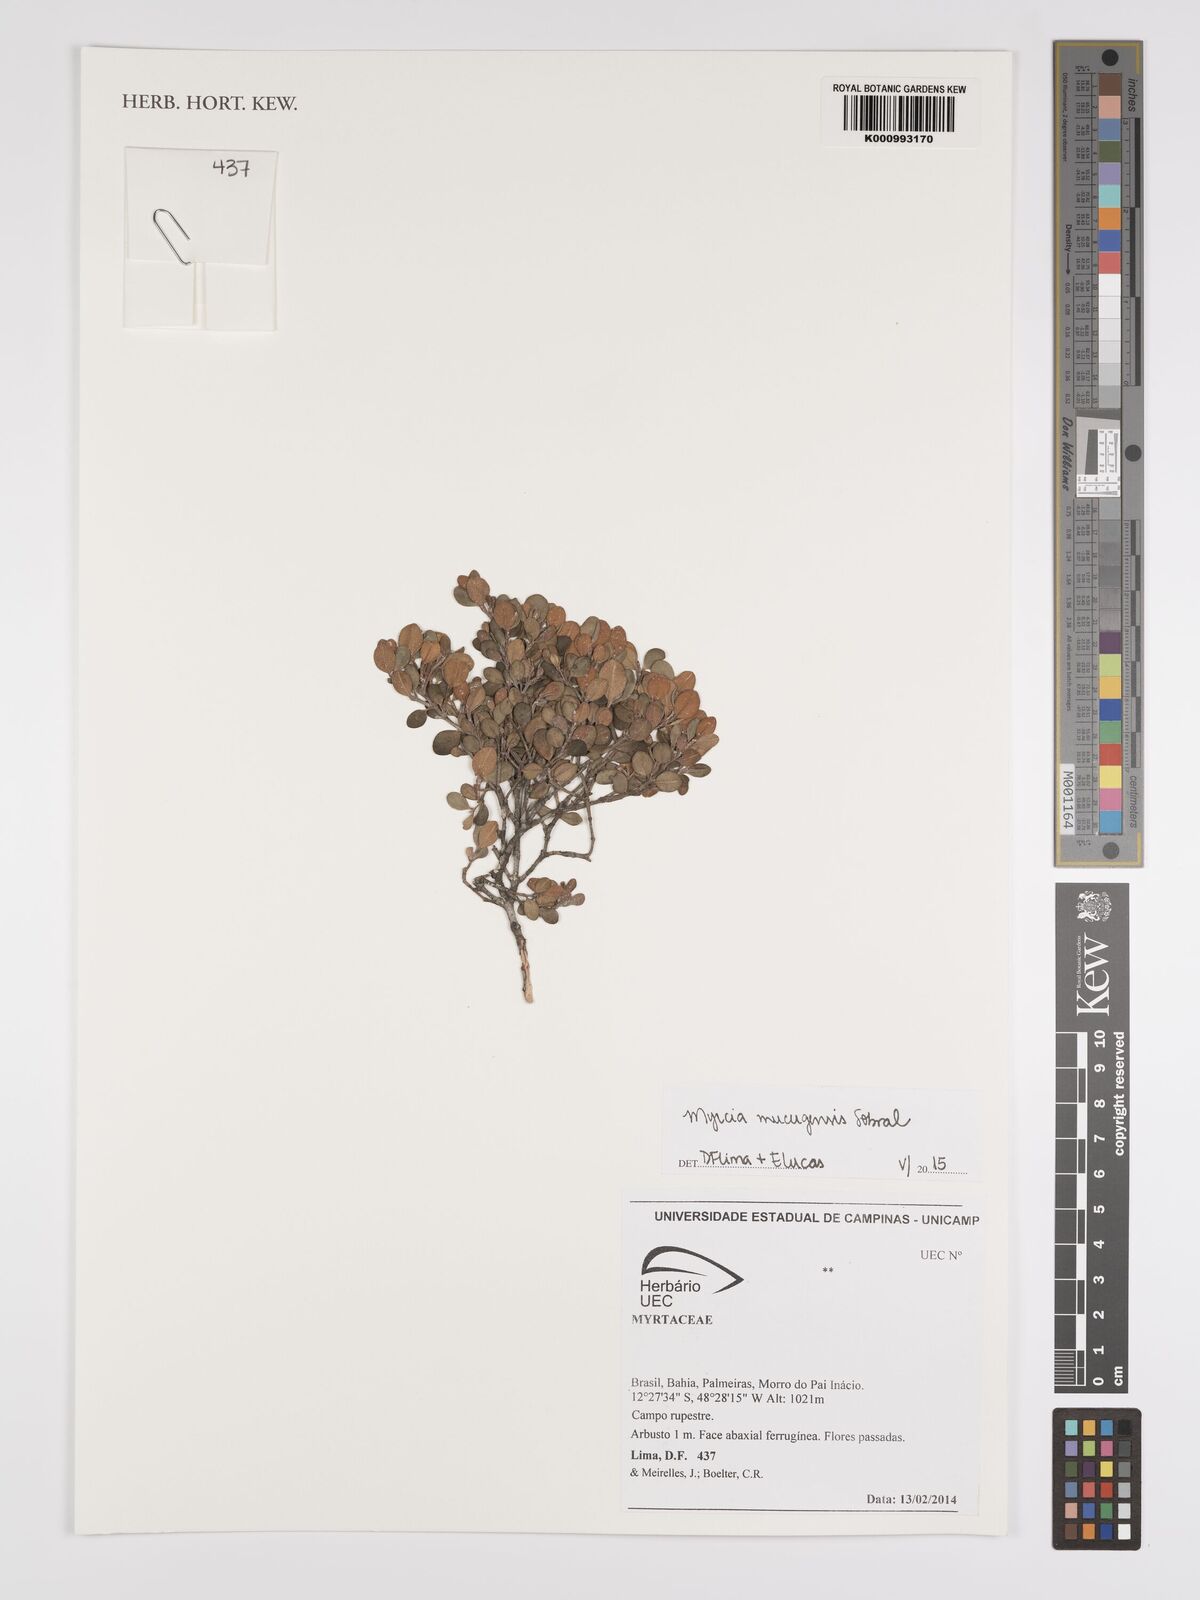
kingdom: Plantae
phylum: Tracheophyta
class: Magnoliopsida
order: Myrtales
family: Myrtaceae
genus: Myrcia
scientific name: Myrcia mucugensis
